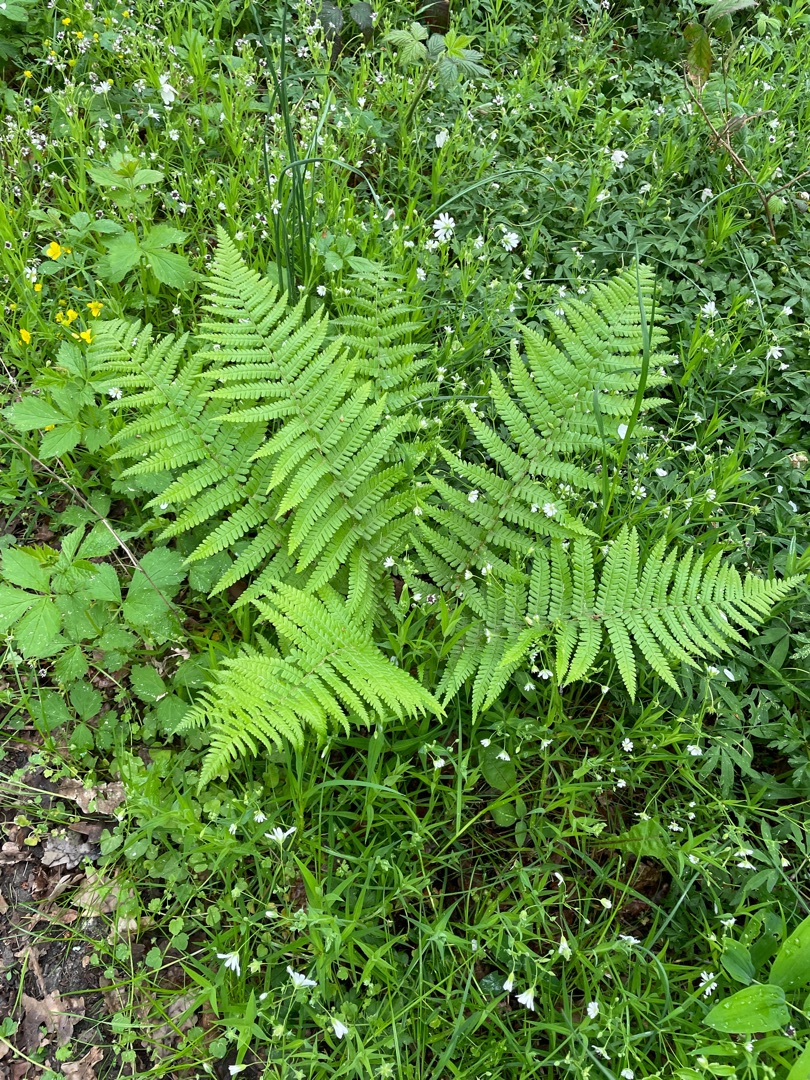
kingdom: Plantae
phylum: Tracheophyta
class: Polypodiopsida
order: Polypodiales
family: Dryopteridaceae
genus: Dryopteris
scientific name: Dryopteris filix-mas
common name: Almindelig mangeløv
